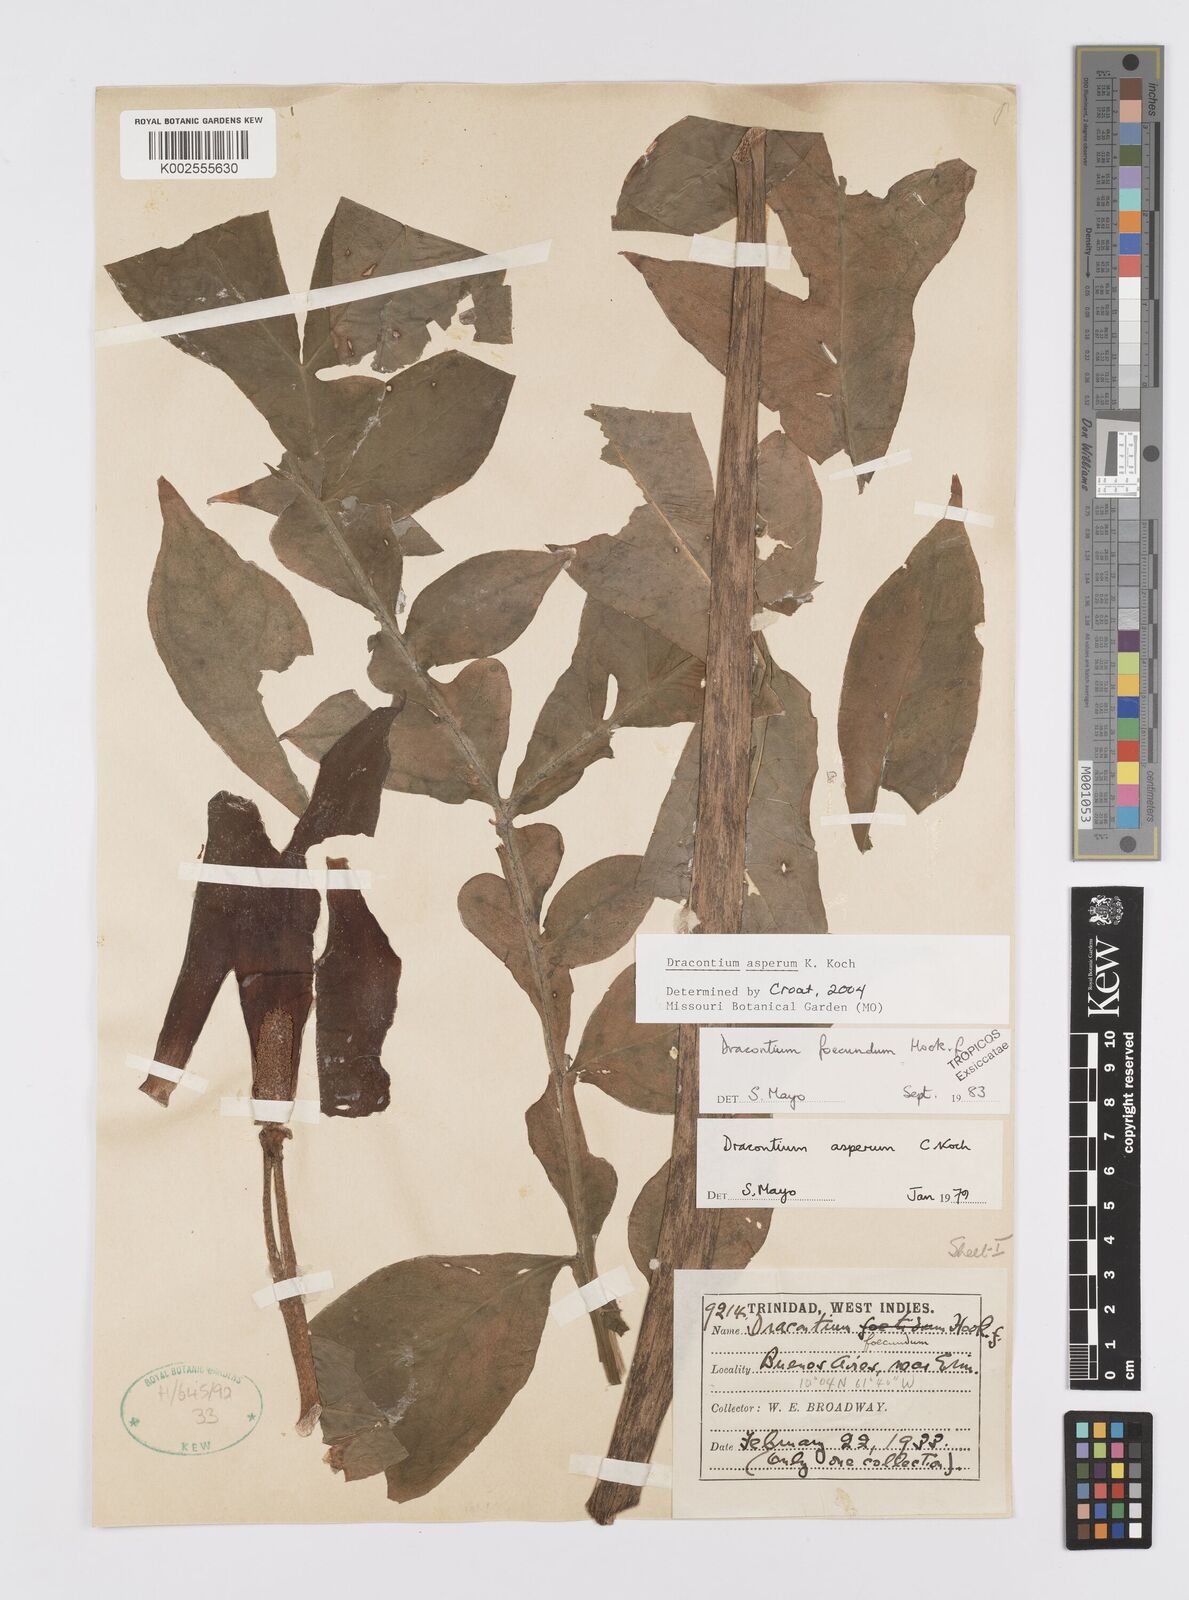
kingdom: Plantae
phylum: Tracheophyta
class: Liliopsida
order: Alismatales
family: Araceae
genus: Dracontium
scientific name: Dracontium asperum
